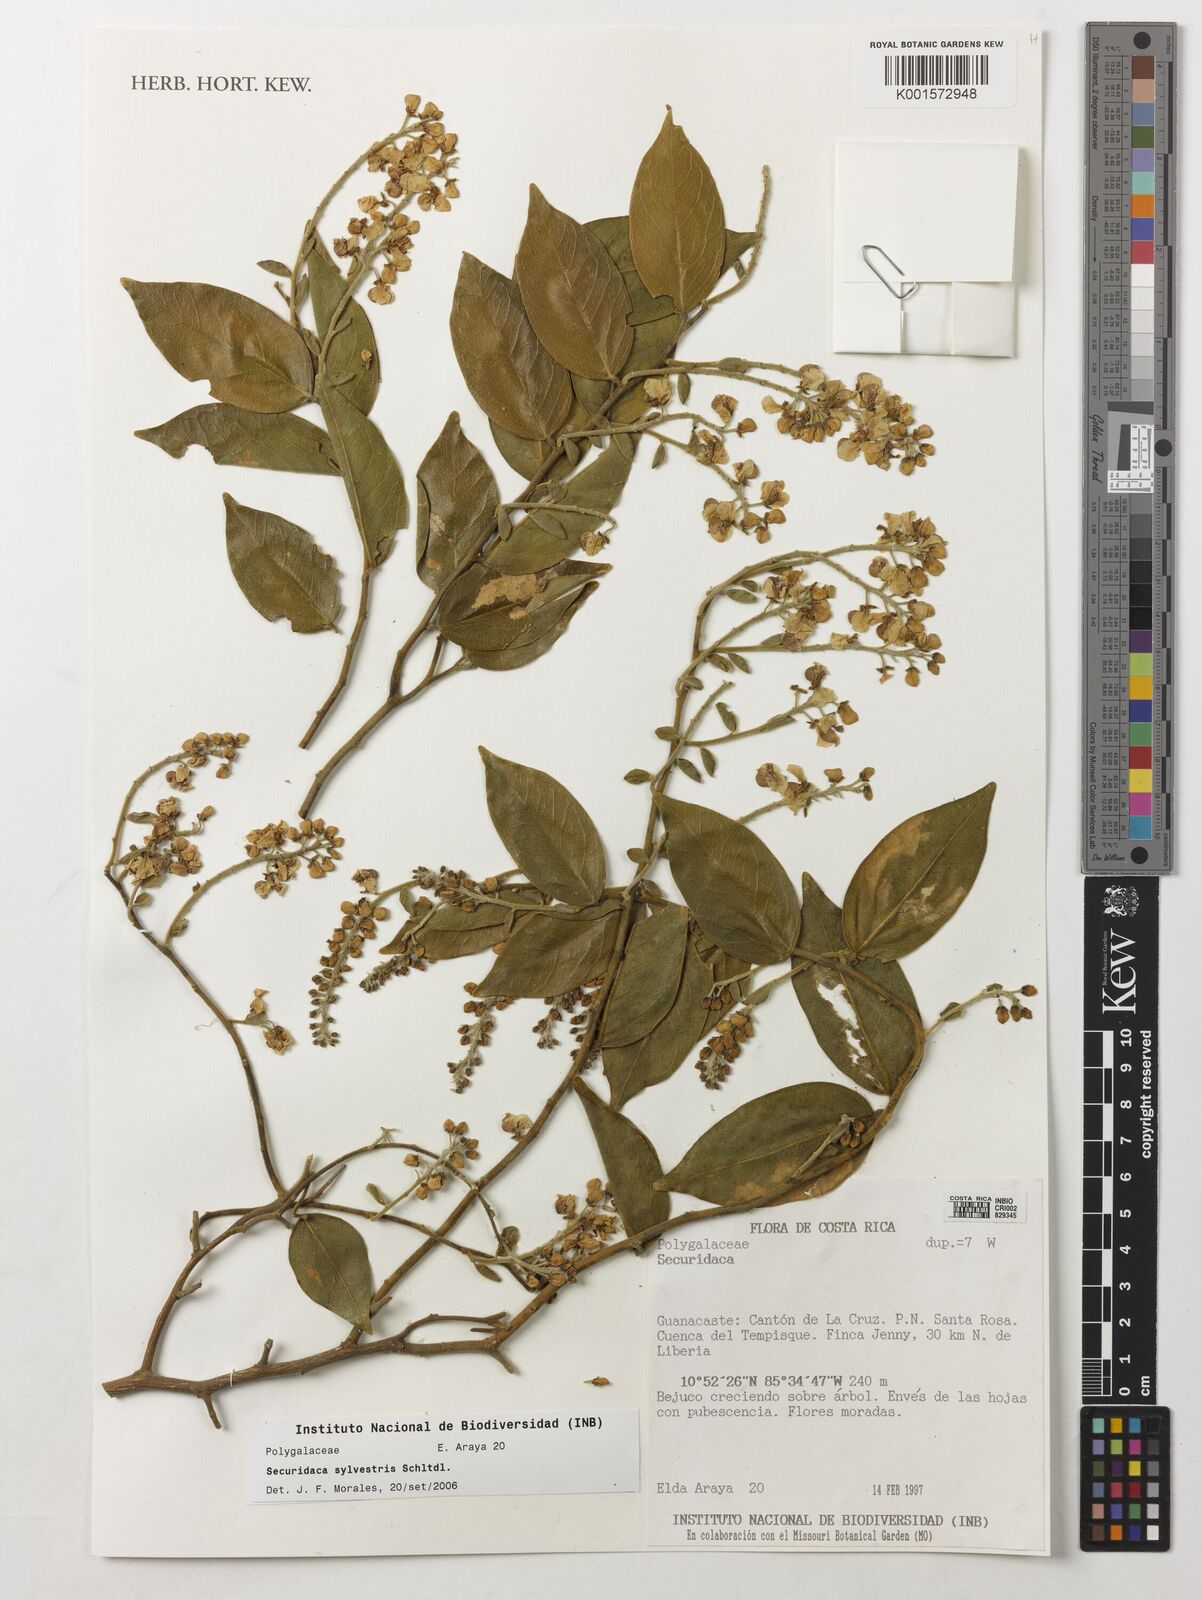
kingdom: Plantae
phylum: Tracheophyta
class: Magnoliopsida
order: Fabales
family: Polygalaceae
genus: Securidaca
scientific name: Securidaca sylvestris
